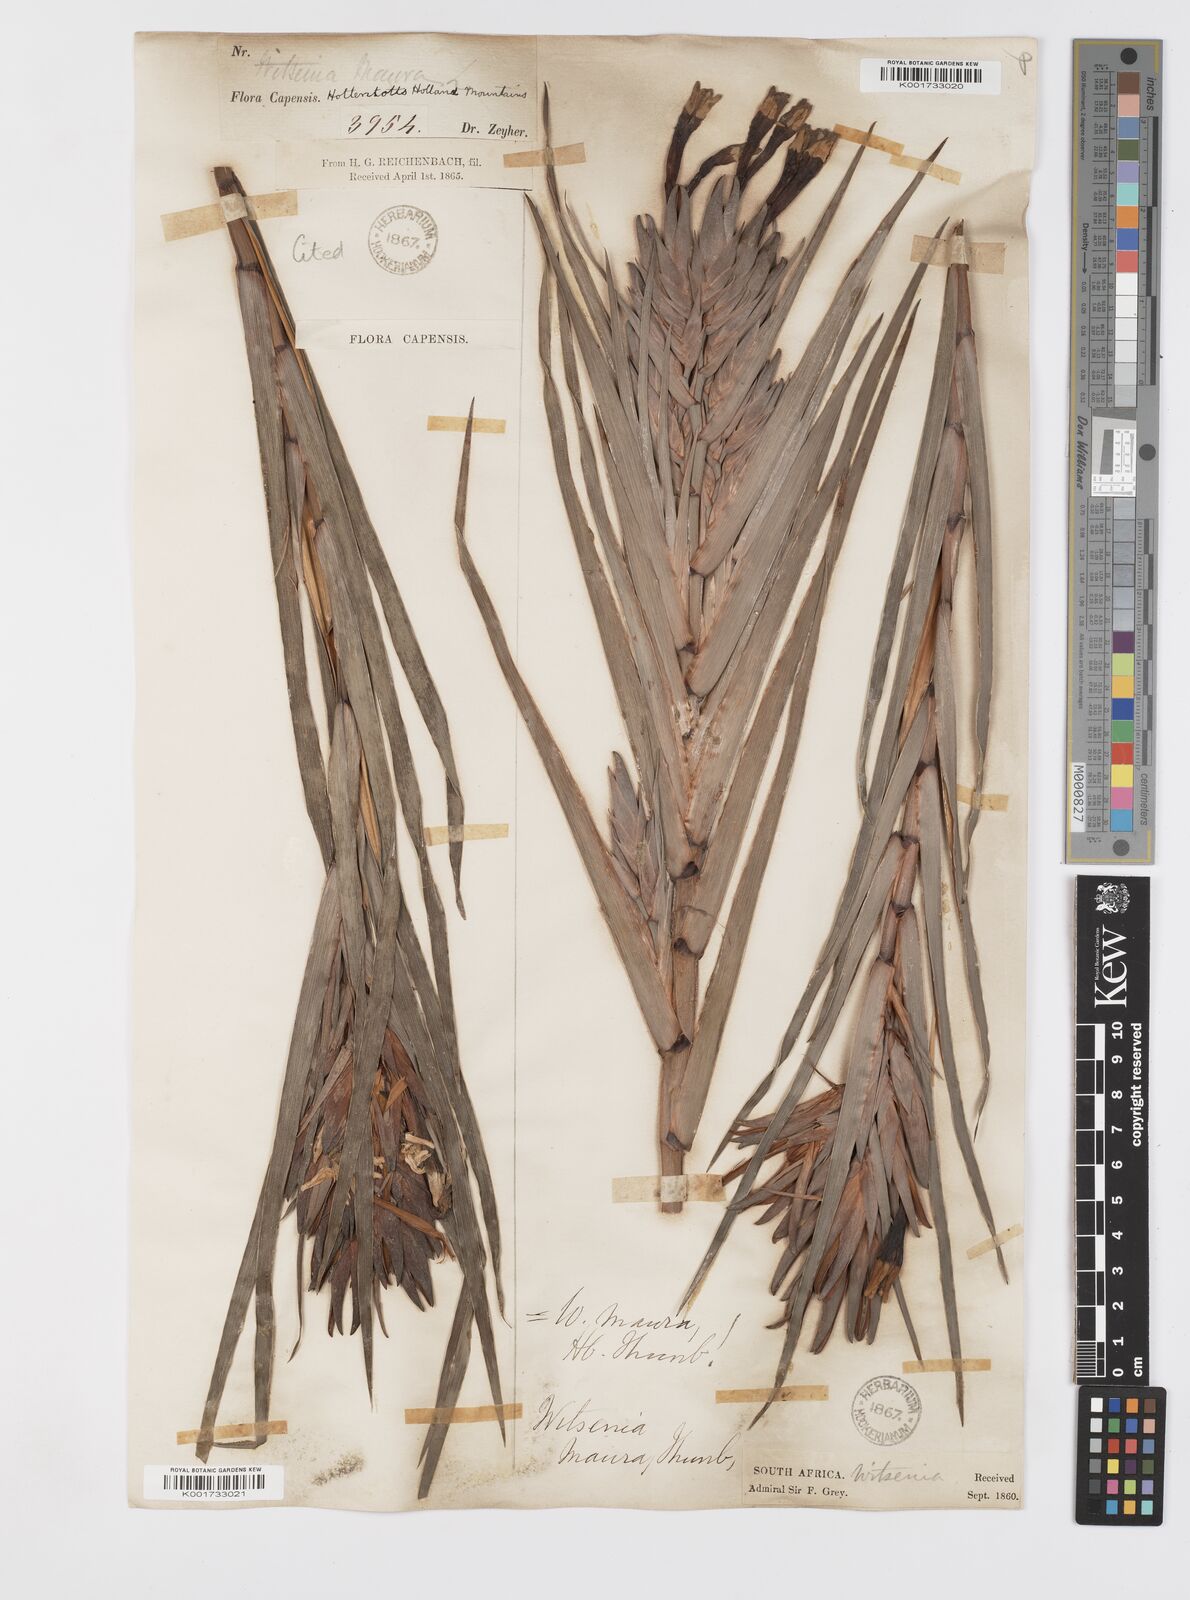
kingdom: Plantae
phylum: Tracheophyta
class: Liliopsida
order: Asparagales
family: Iridaceae
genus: Witsenia
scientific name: Witsenia maura
